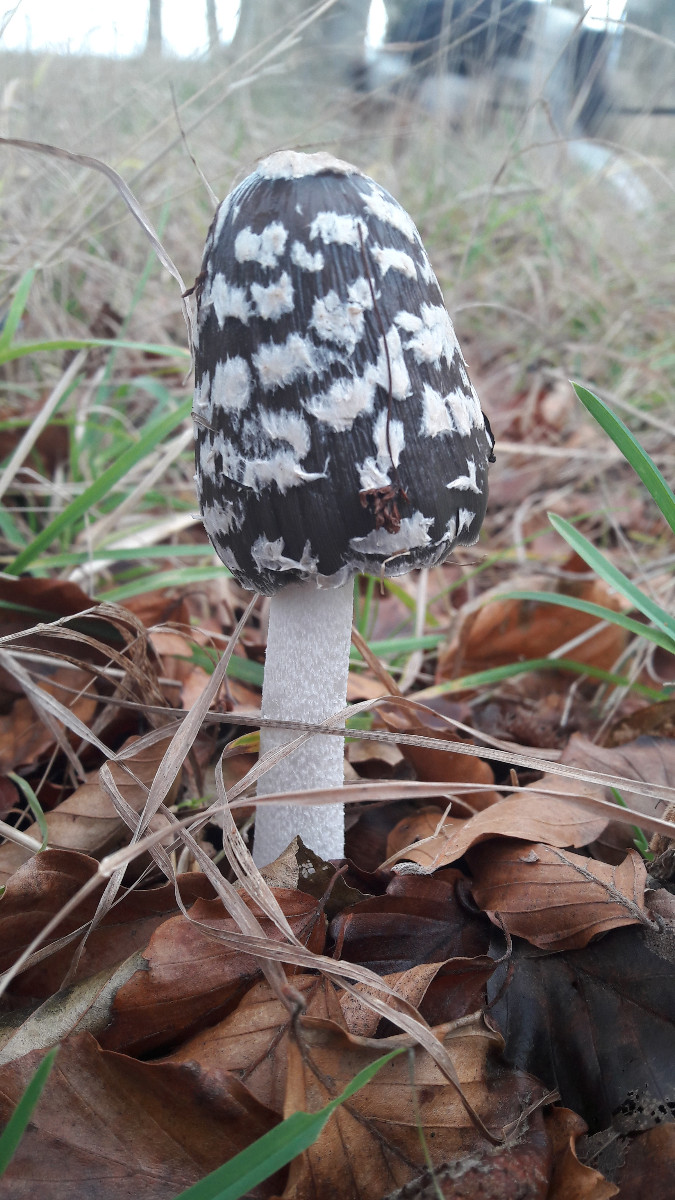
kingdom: Fungi
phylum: Basidiomycota
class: Agaricomycetes
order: Agaricales
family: Psathyrellaceae
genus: Coprinopsis
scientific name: Coprinopsis picacea
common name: skade-blækhat
